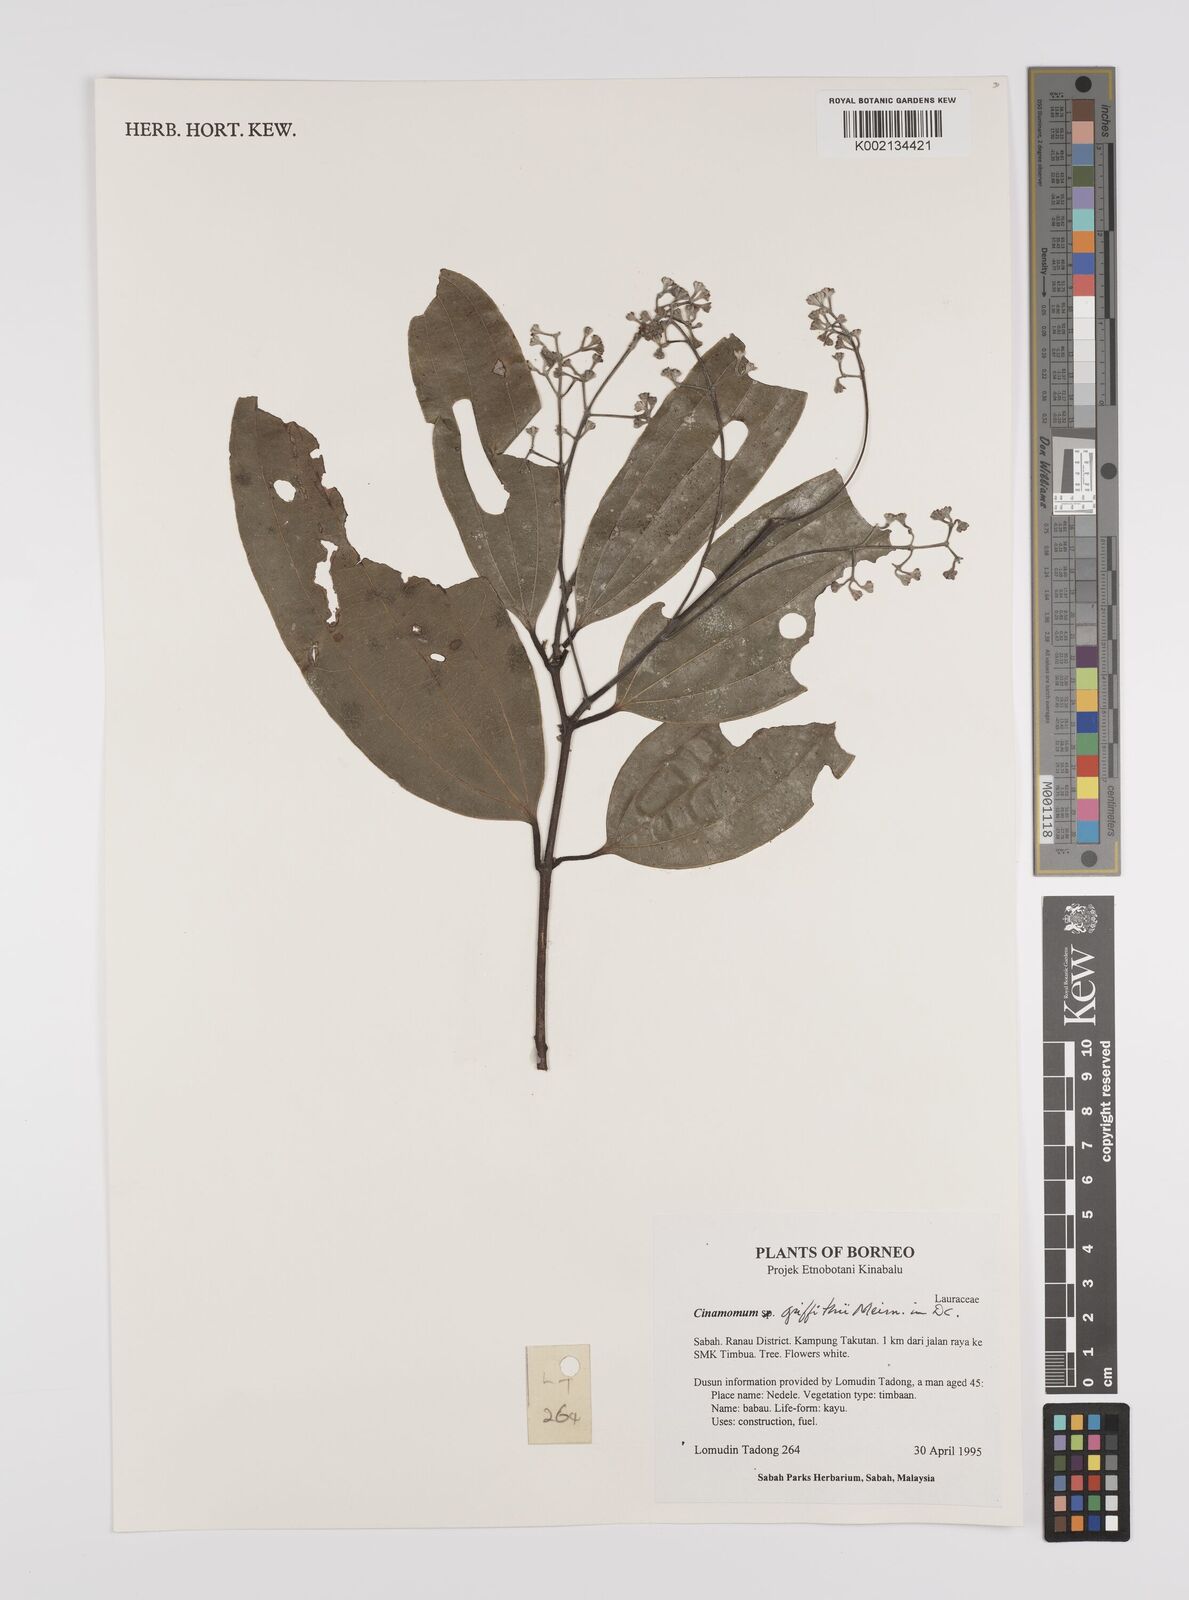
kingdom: Plantae
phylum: Tracheophyta
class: Magnoliopsida
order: Laurales
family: Lauraceae
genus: Cinnamomum
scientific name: Cinnamomum iners
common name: Wild cinnamon
